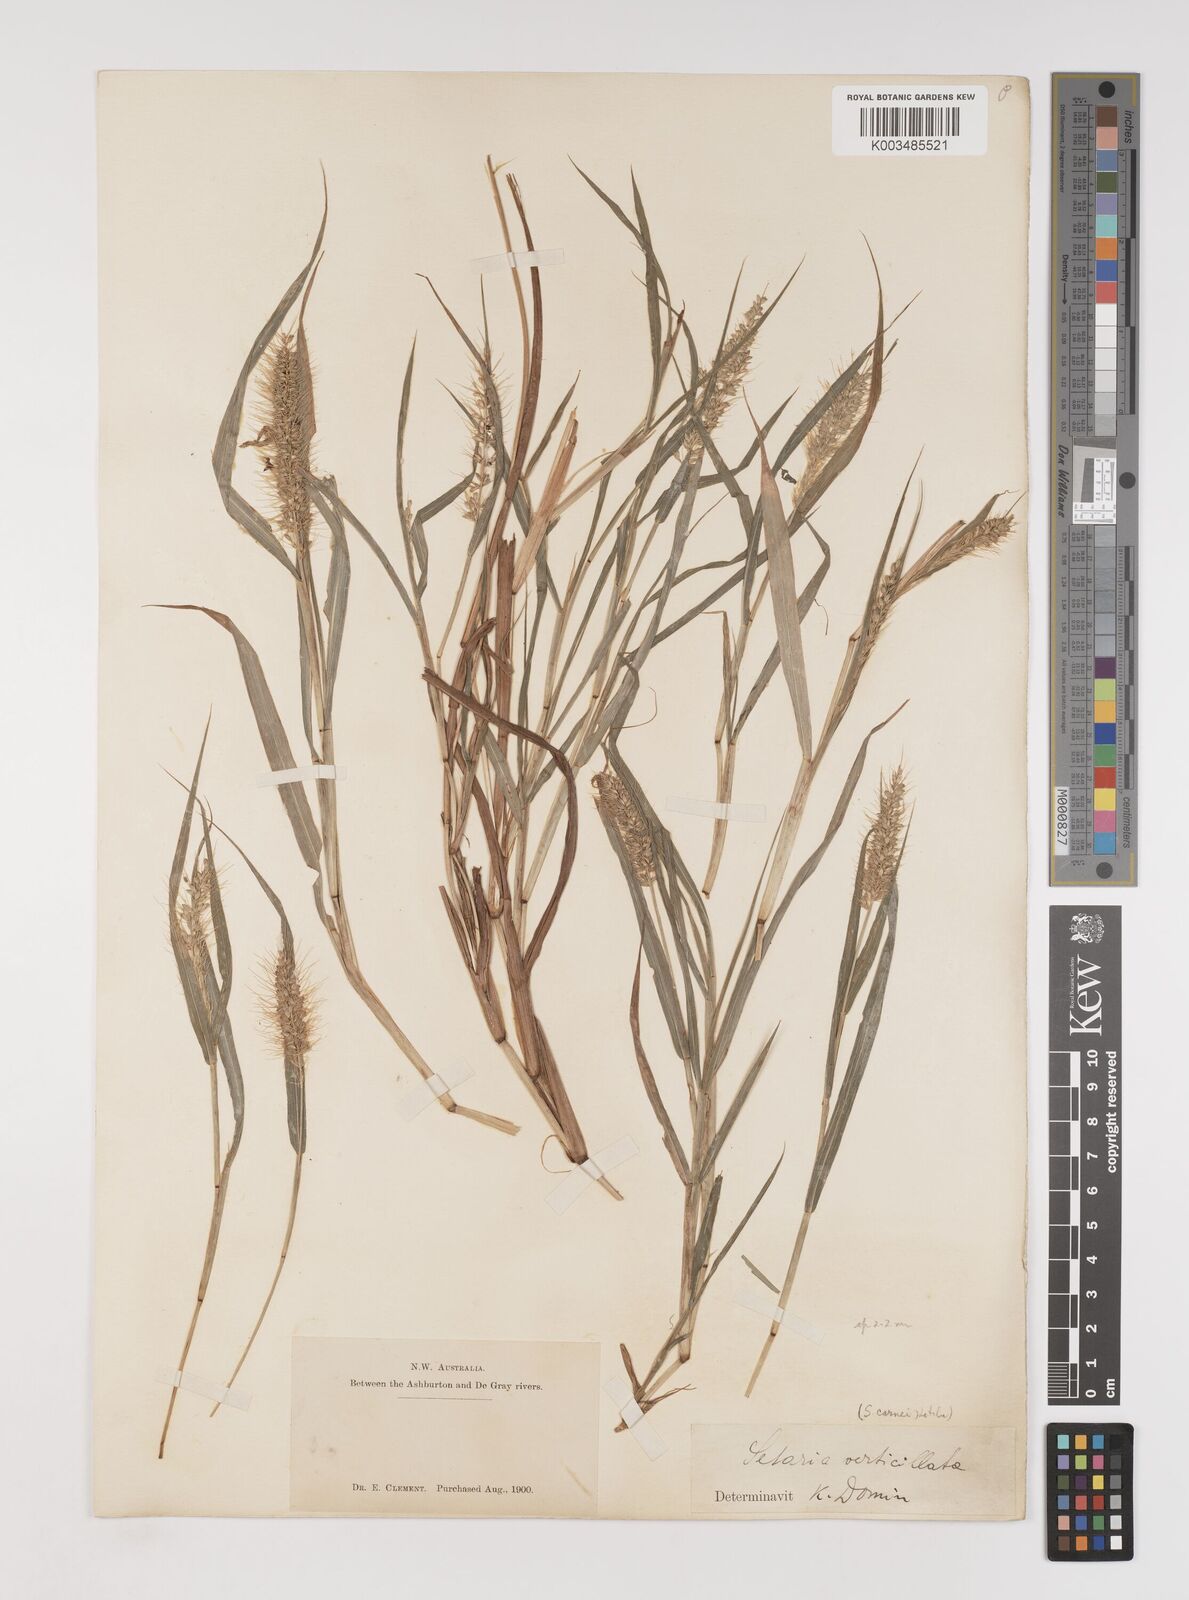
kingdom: Plantae
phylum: Tracheophyta
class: Liliopsida
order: Poales
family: Poaceae
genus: Setaria
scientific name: Setaria verticillata
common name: Hooked bristlegrass
